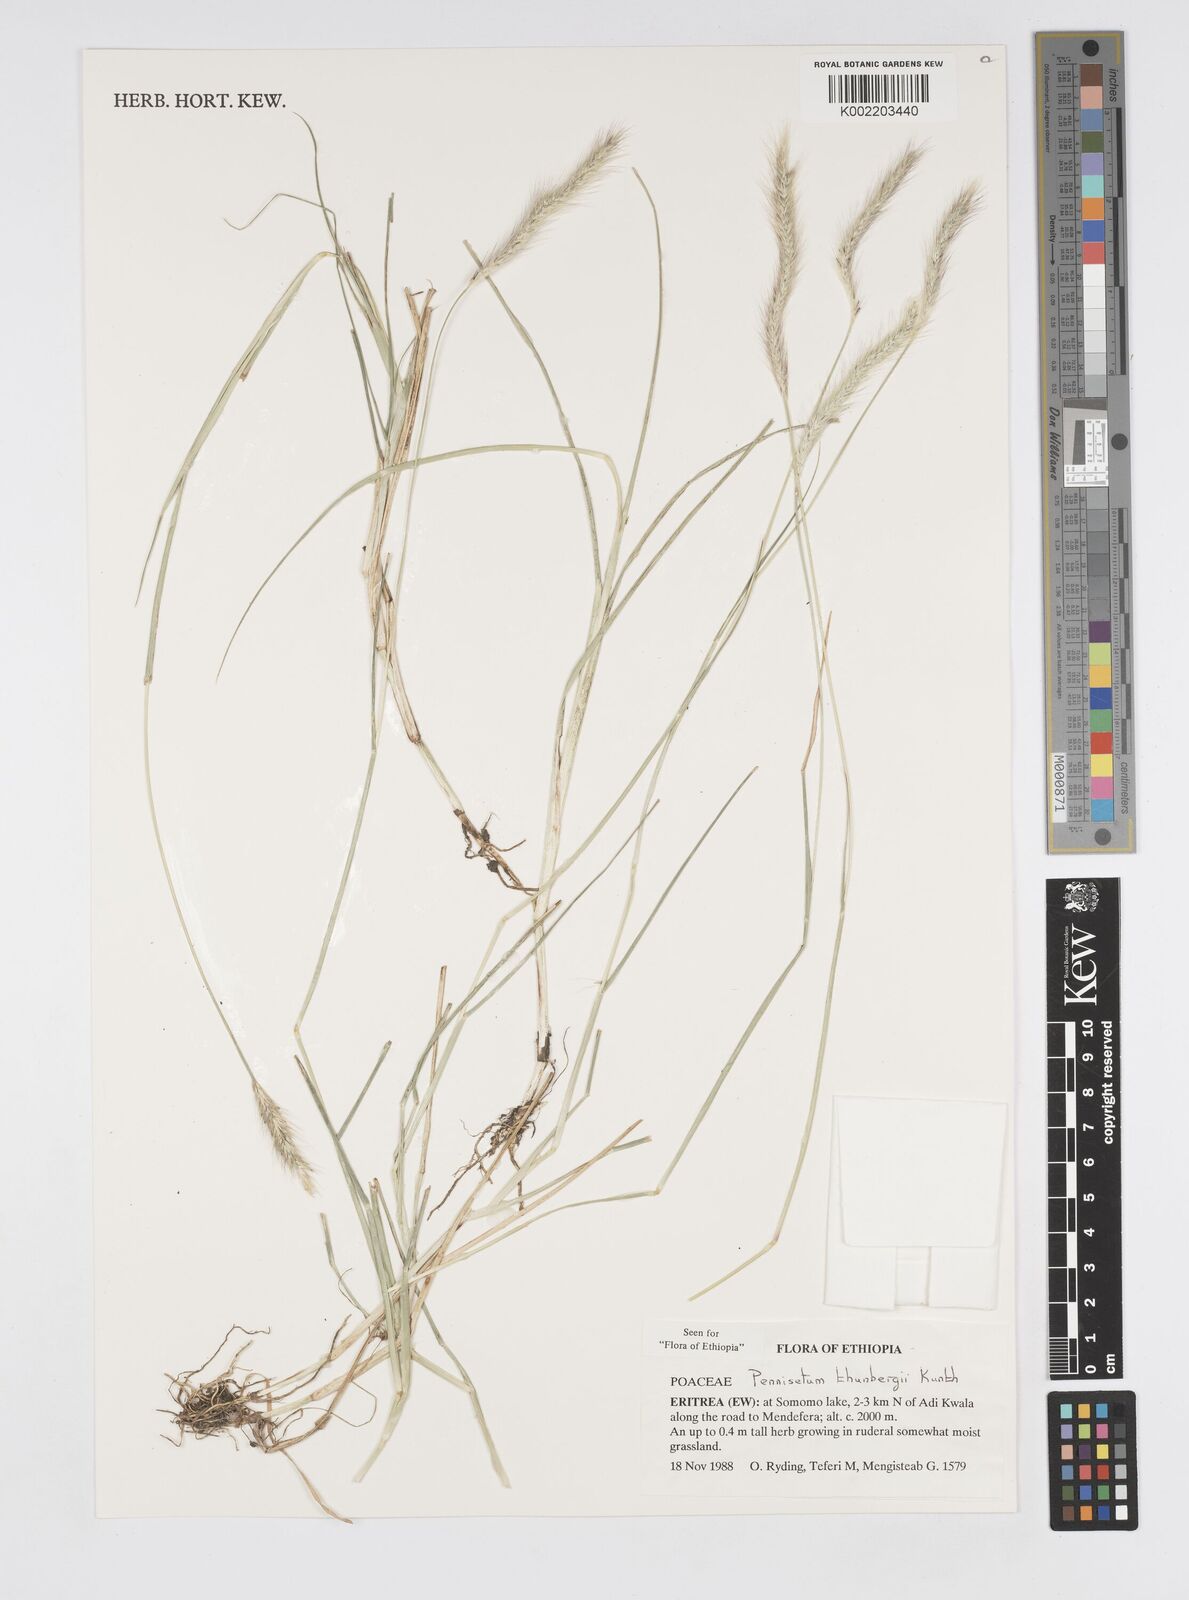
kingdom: Plantae
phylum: Tracheophyta
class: Liliopsida
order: Poales
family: Poaceae
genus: Cenchrus
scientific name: Cenchrus geniculatus
